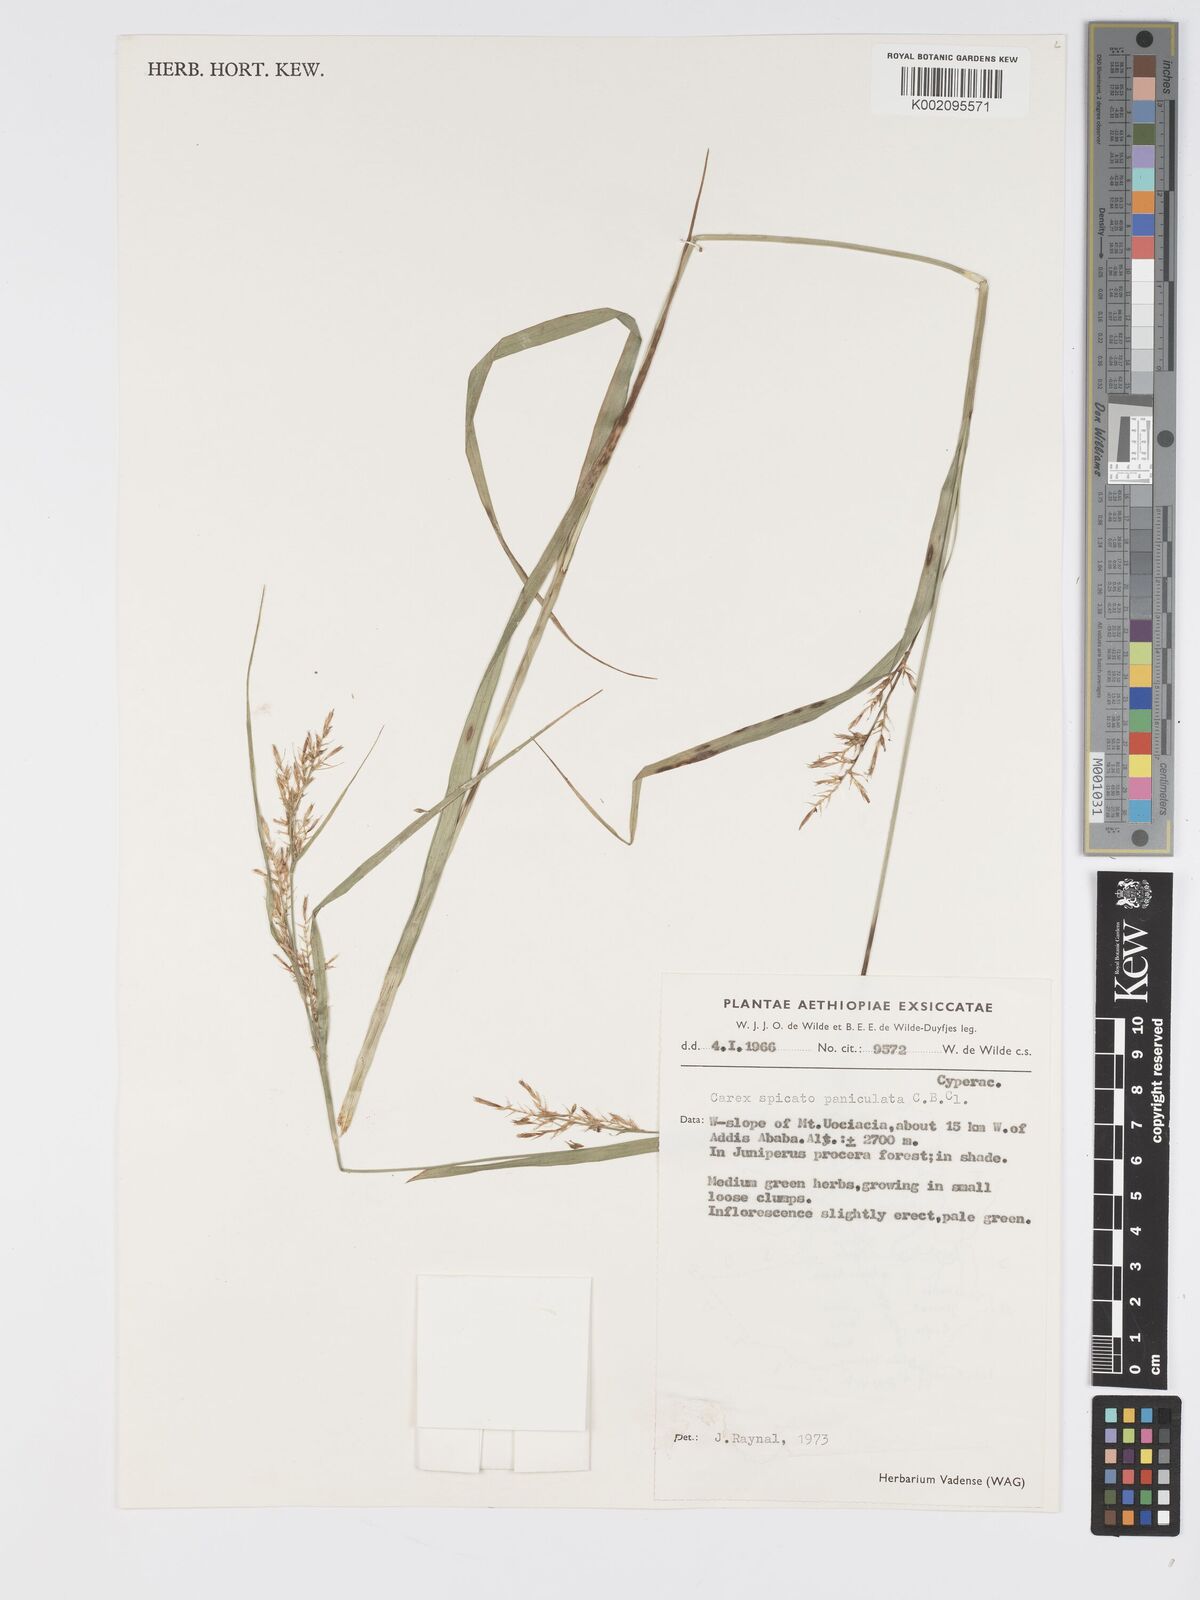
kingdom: Plantae
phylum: Tracheophyta
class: Liliopsida
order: Poales
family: Cyperaceae
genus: Carex
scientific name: Carex chlorosaccus
